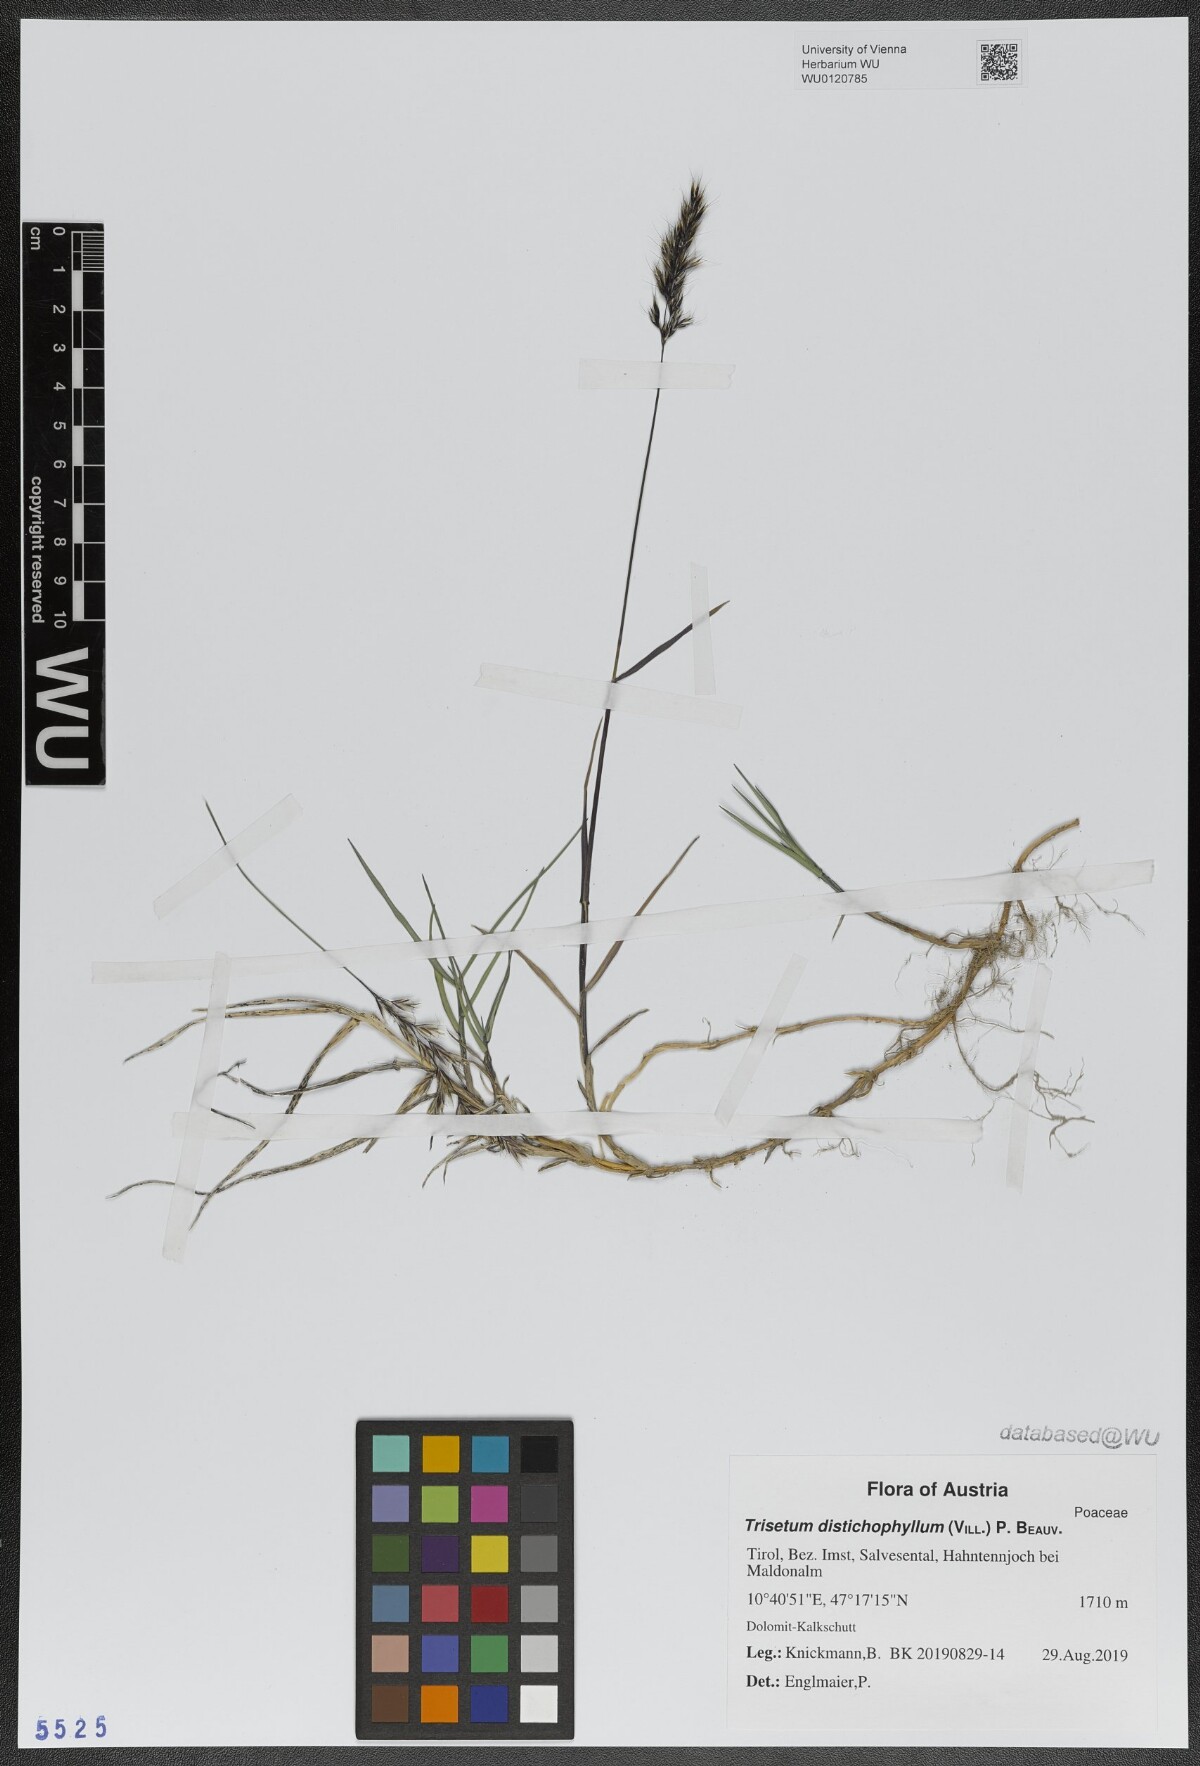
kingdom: Plantae
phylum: Tracheophyta
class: Liliopsida
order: Poales
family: Poaceae
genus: Acrospelion
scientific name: Acrospelion distichophyllum
